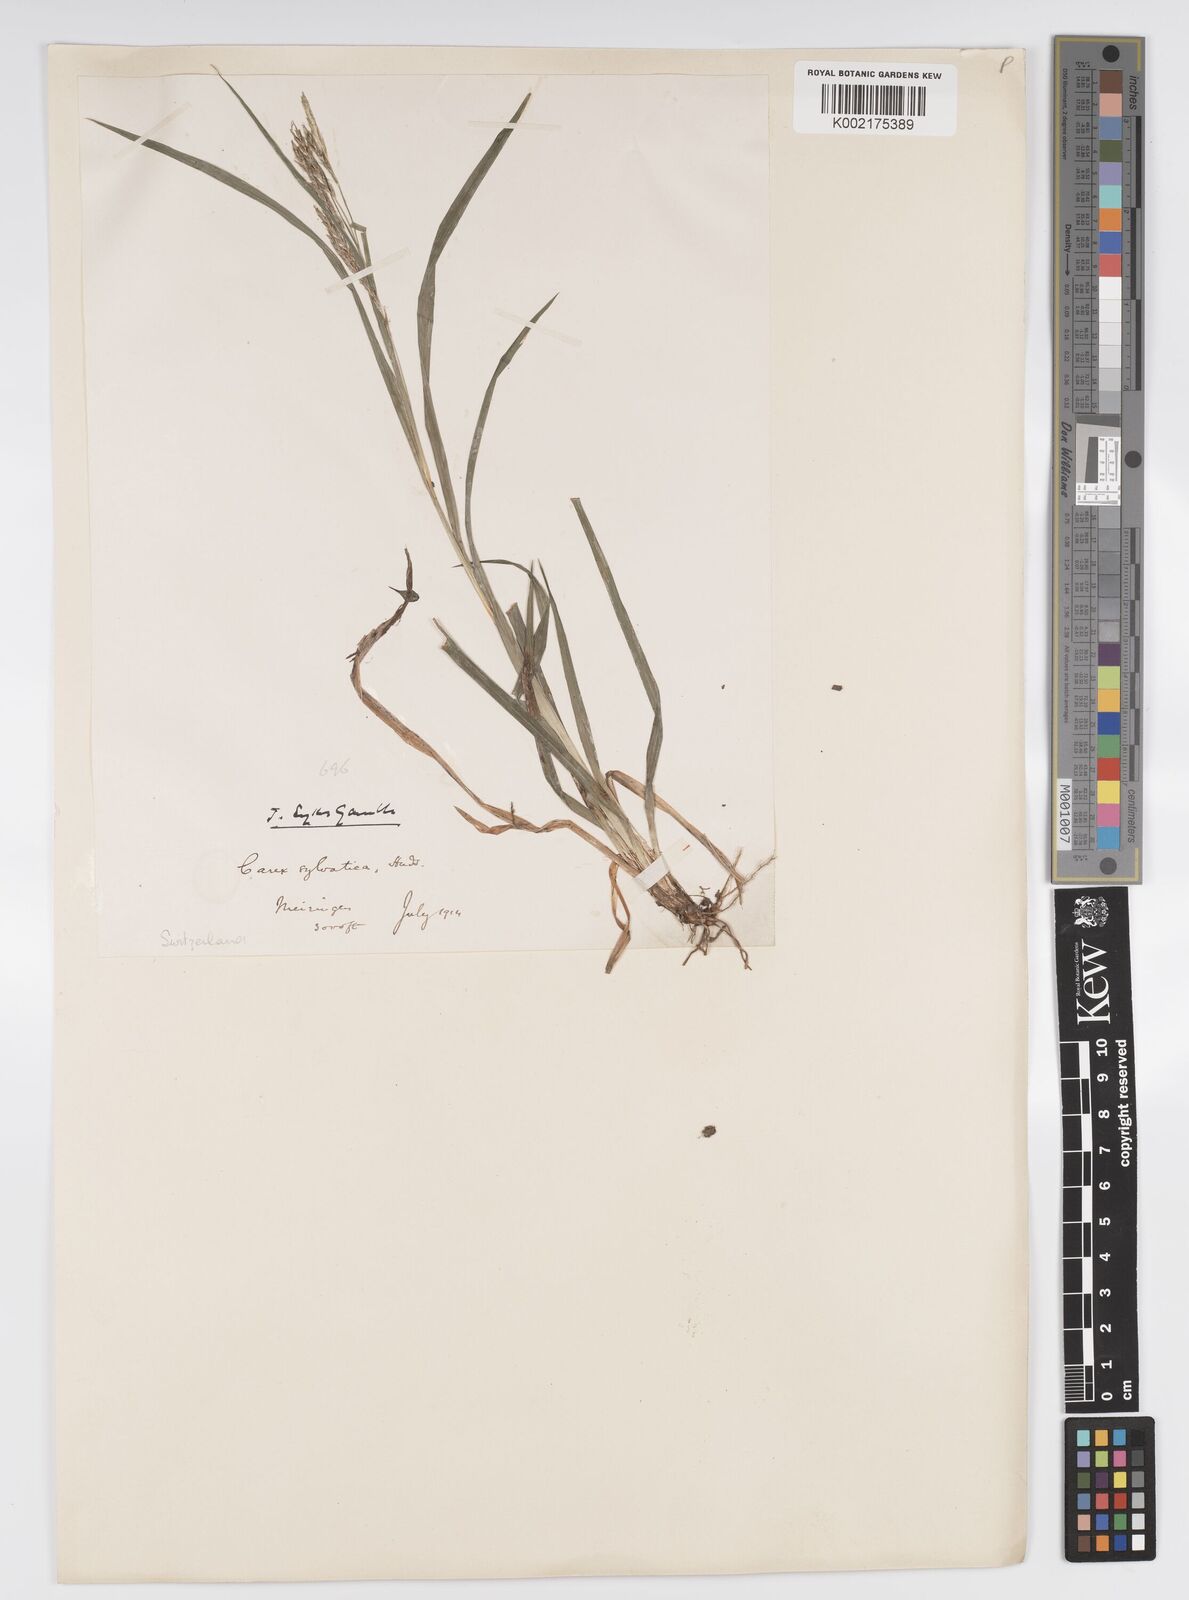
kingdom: Plantae
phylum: Tracheophyta
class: Liliopsida
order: Poales
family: Cyperaceae
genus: Carex
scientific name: Carex sylvatica
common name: Wood-sedge
